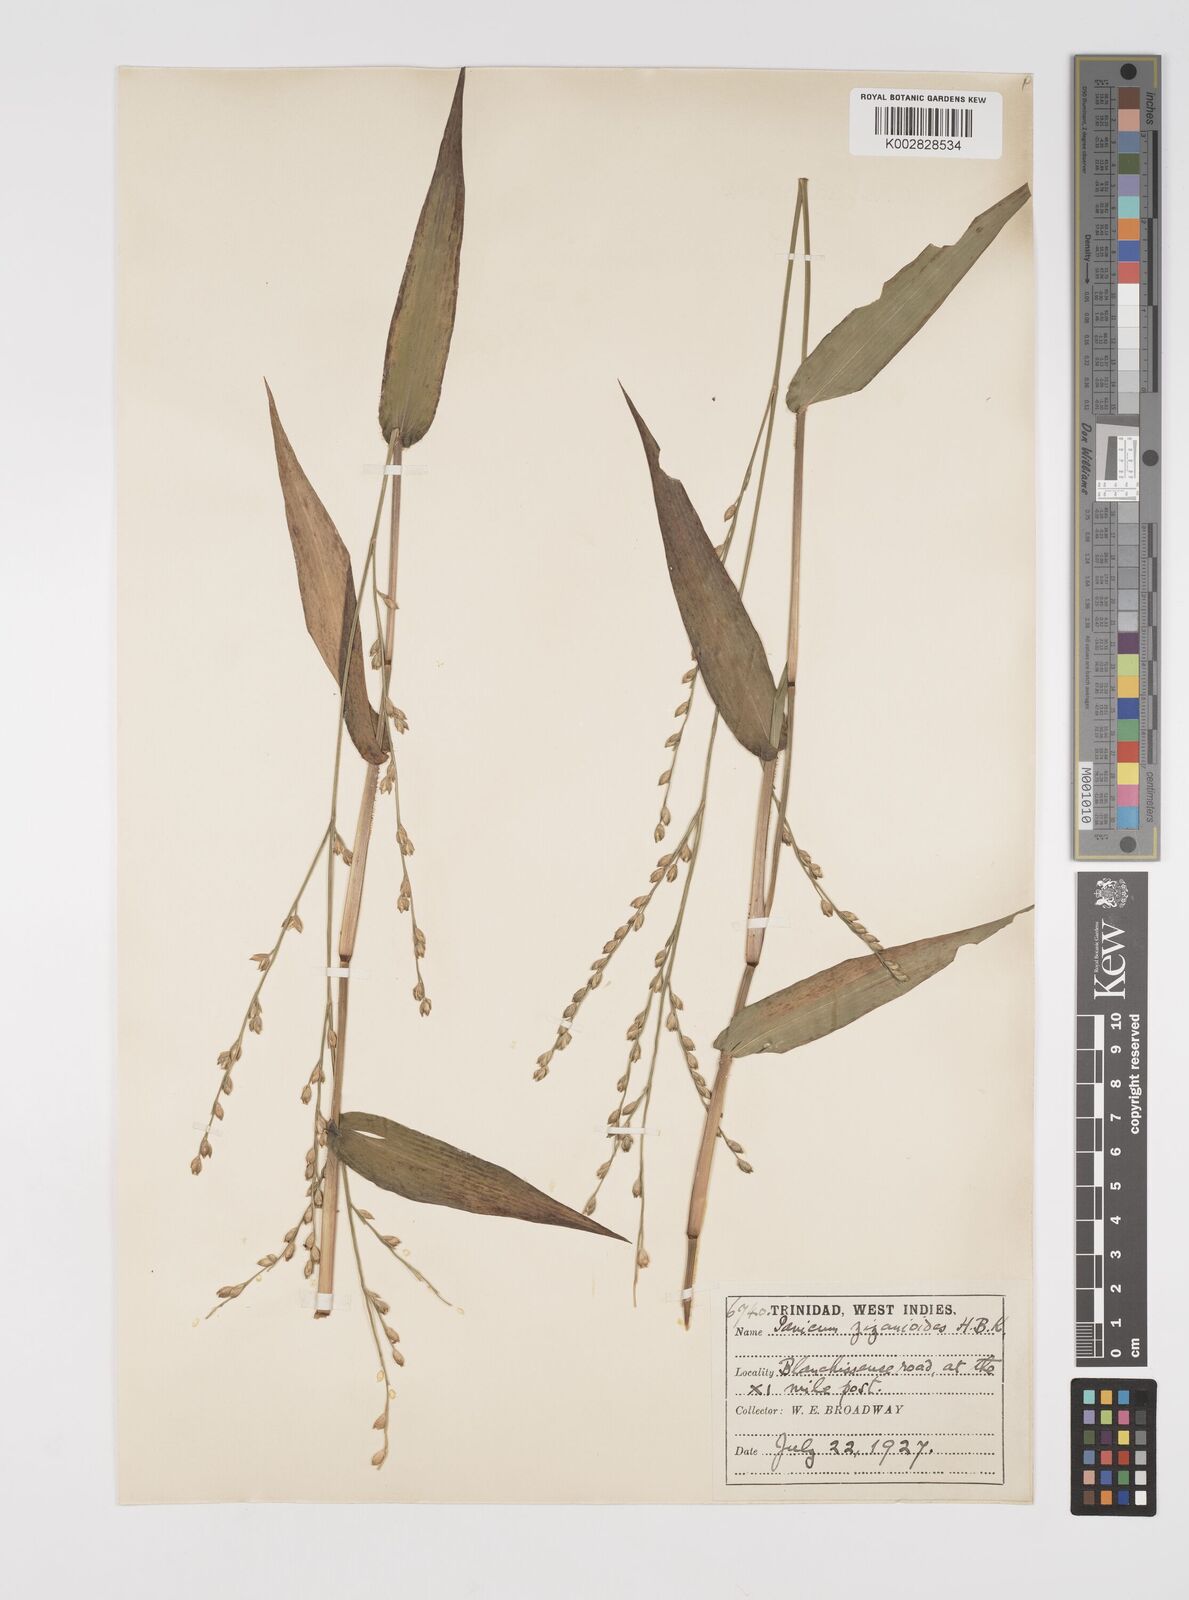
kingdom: Plantae
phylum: Tracheophyta
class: Liliopsida
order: Poales
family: Poaceae
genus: Acroceras
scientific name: Acroceras zizanioides
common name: Oat grass
